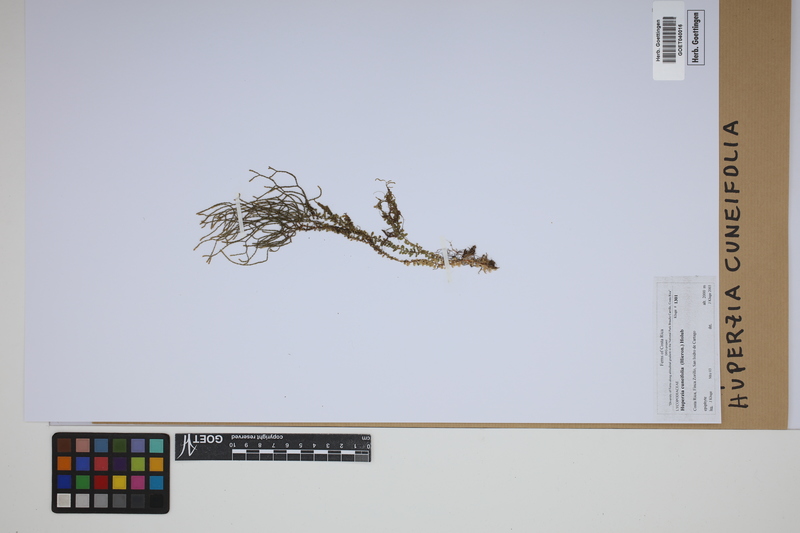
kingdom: Plantae
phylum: Tracheophyta
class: Lycopodiopsida
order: Lycopodiales
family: Lycopodiaceae
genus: Phlegmariurus
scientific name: Phlegmariurus cuneifolius
